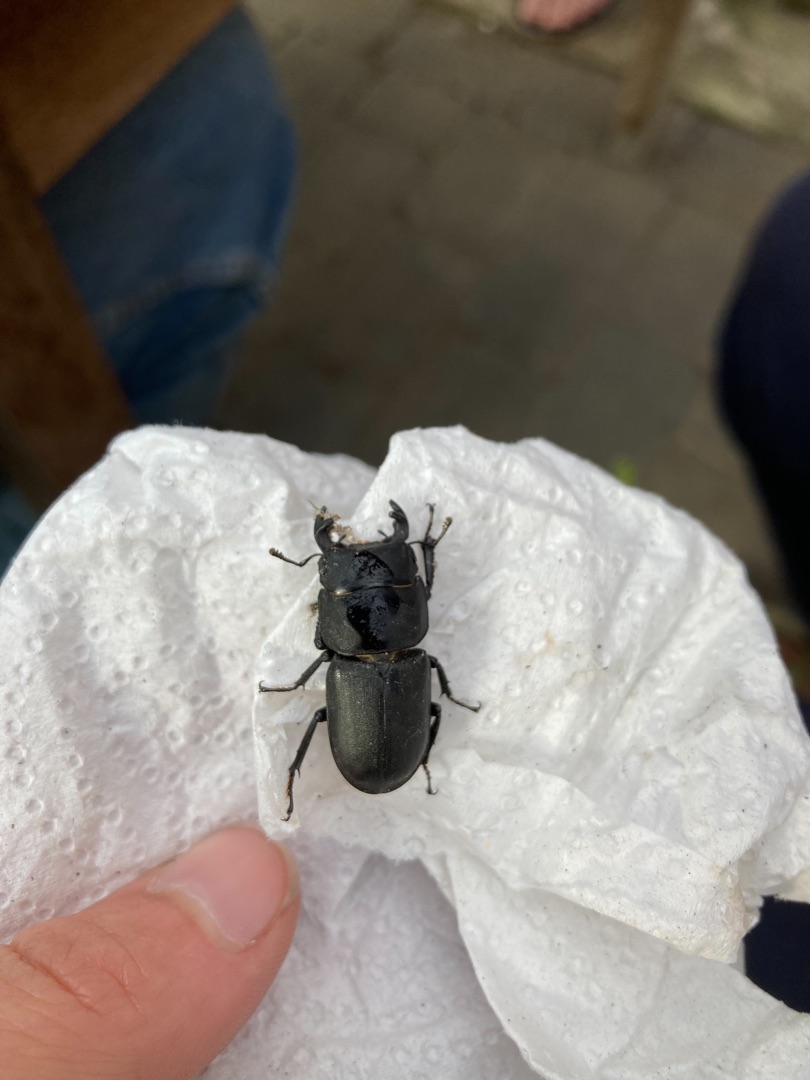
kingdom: Animalia
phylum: Arthropoda
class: Insecta
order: Coleoptera
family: Lucanidae
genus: Dorcus
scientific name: Dorcus parallelipipedus
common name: Bøghjort
